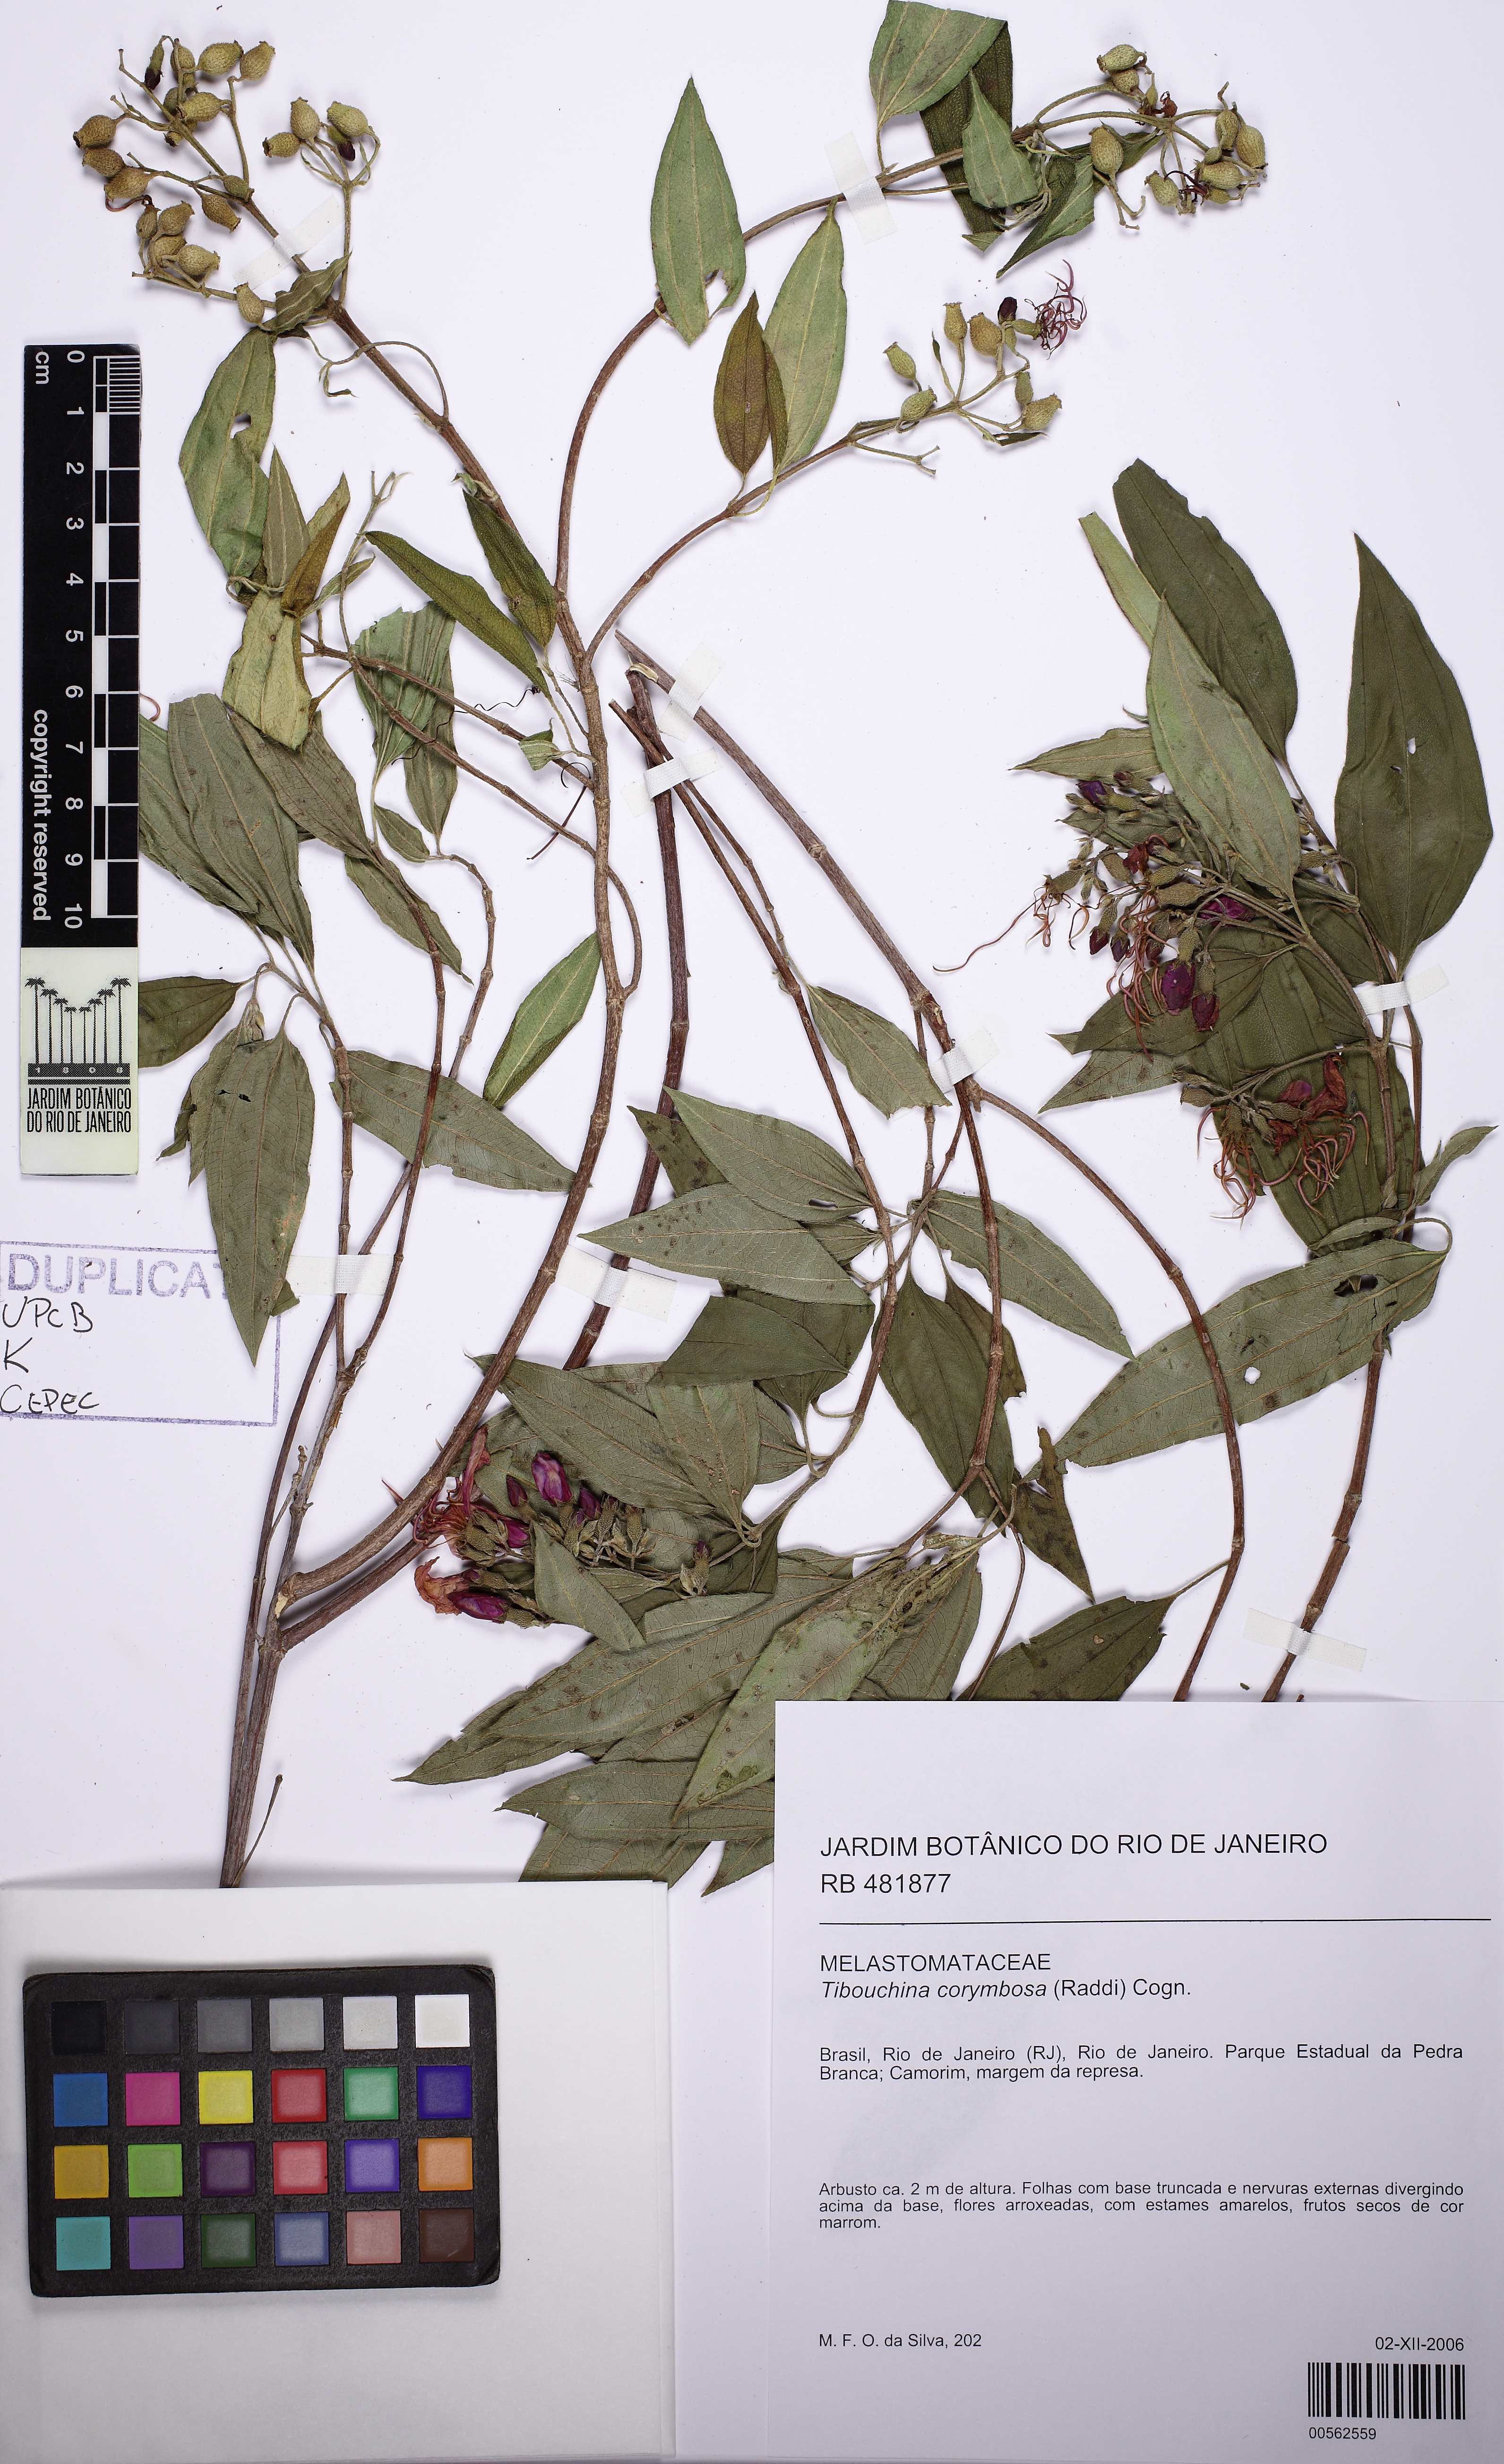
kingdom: Plantae
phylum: Tracheophyta
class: Magnoliopsida
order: Myrtales
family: Melastomataceae
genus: Pleroma
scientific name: Pleroma vimineum
